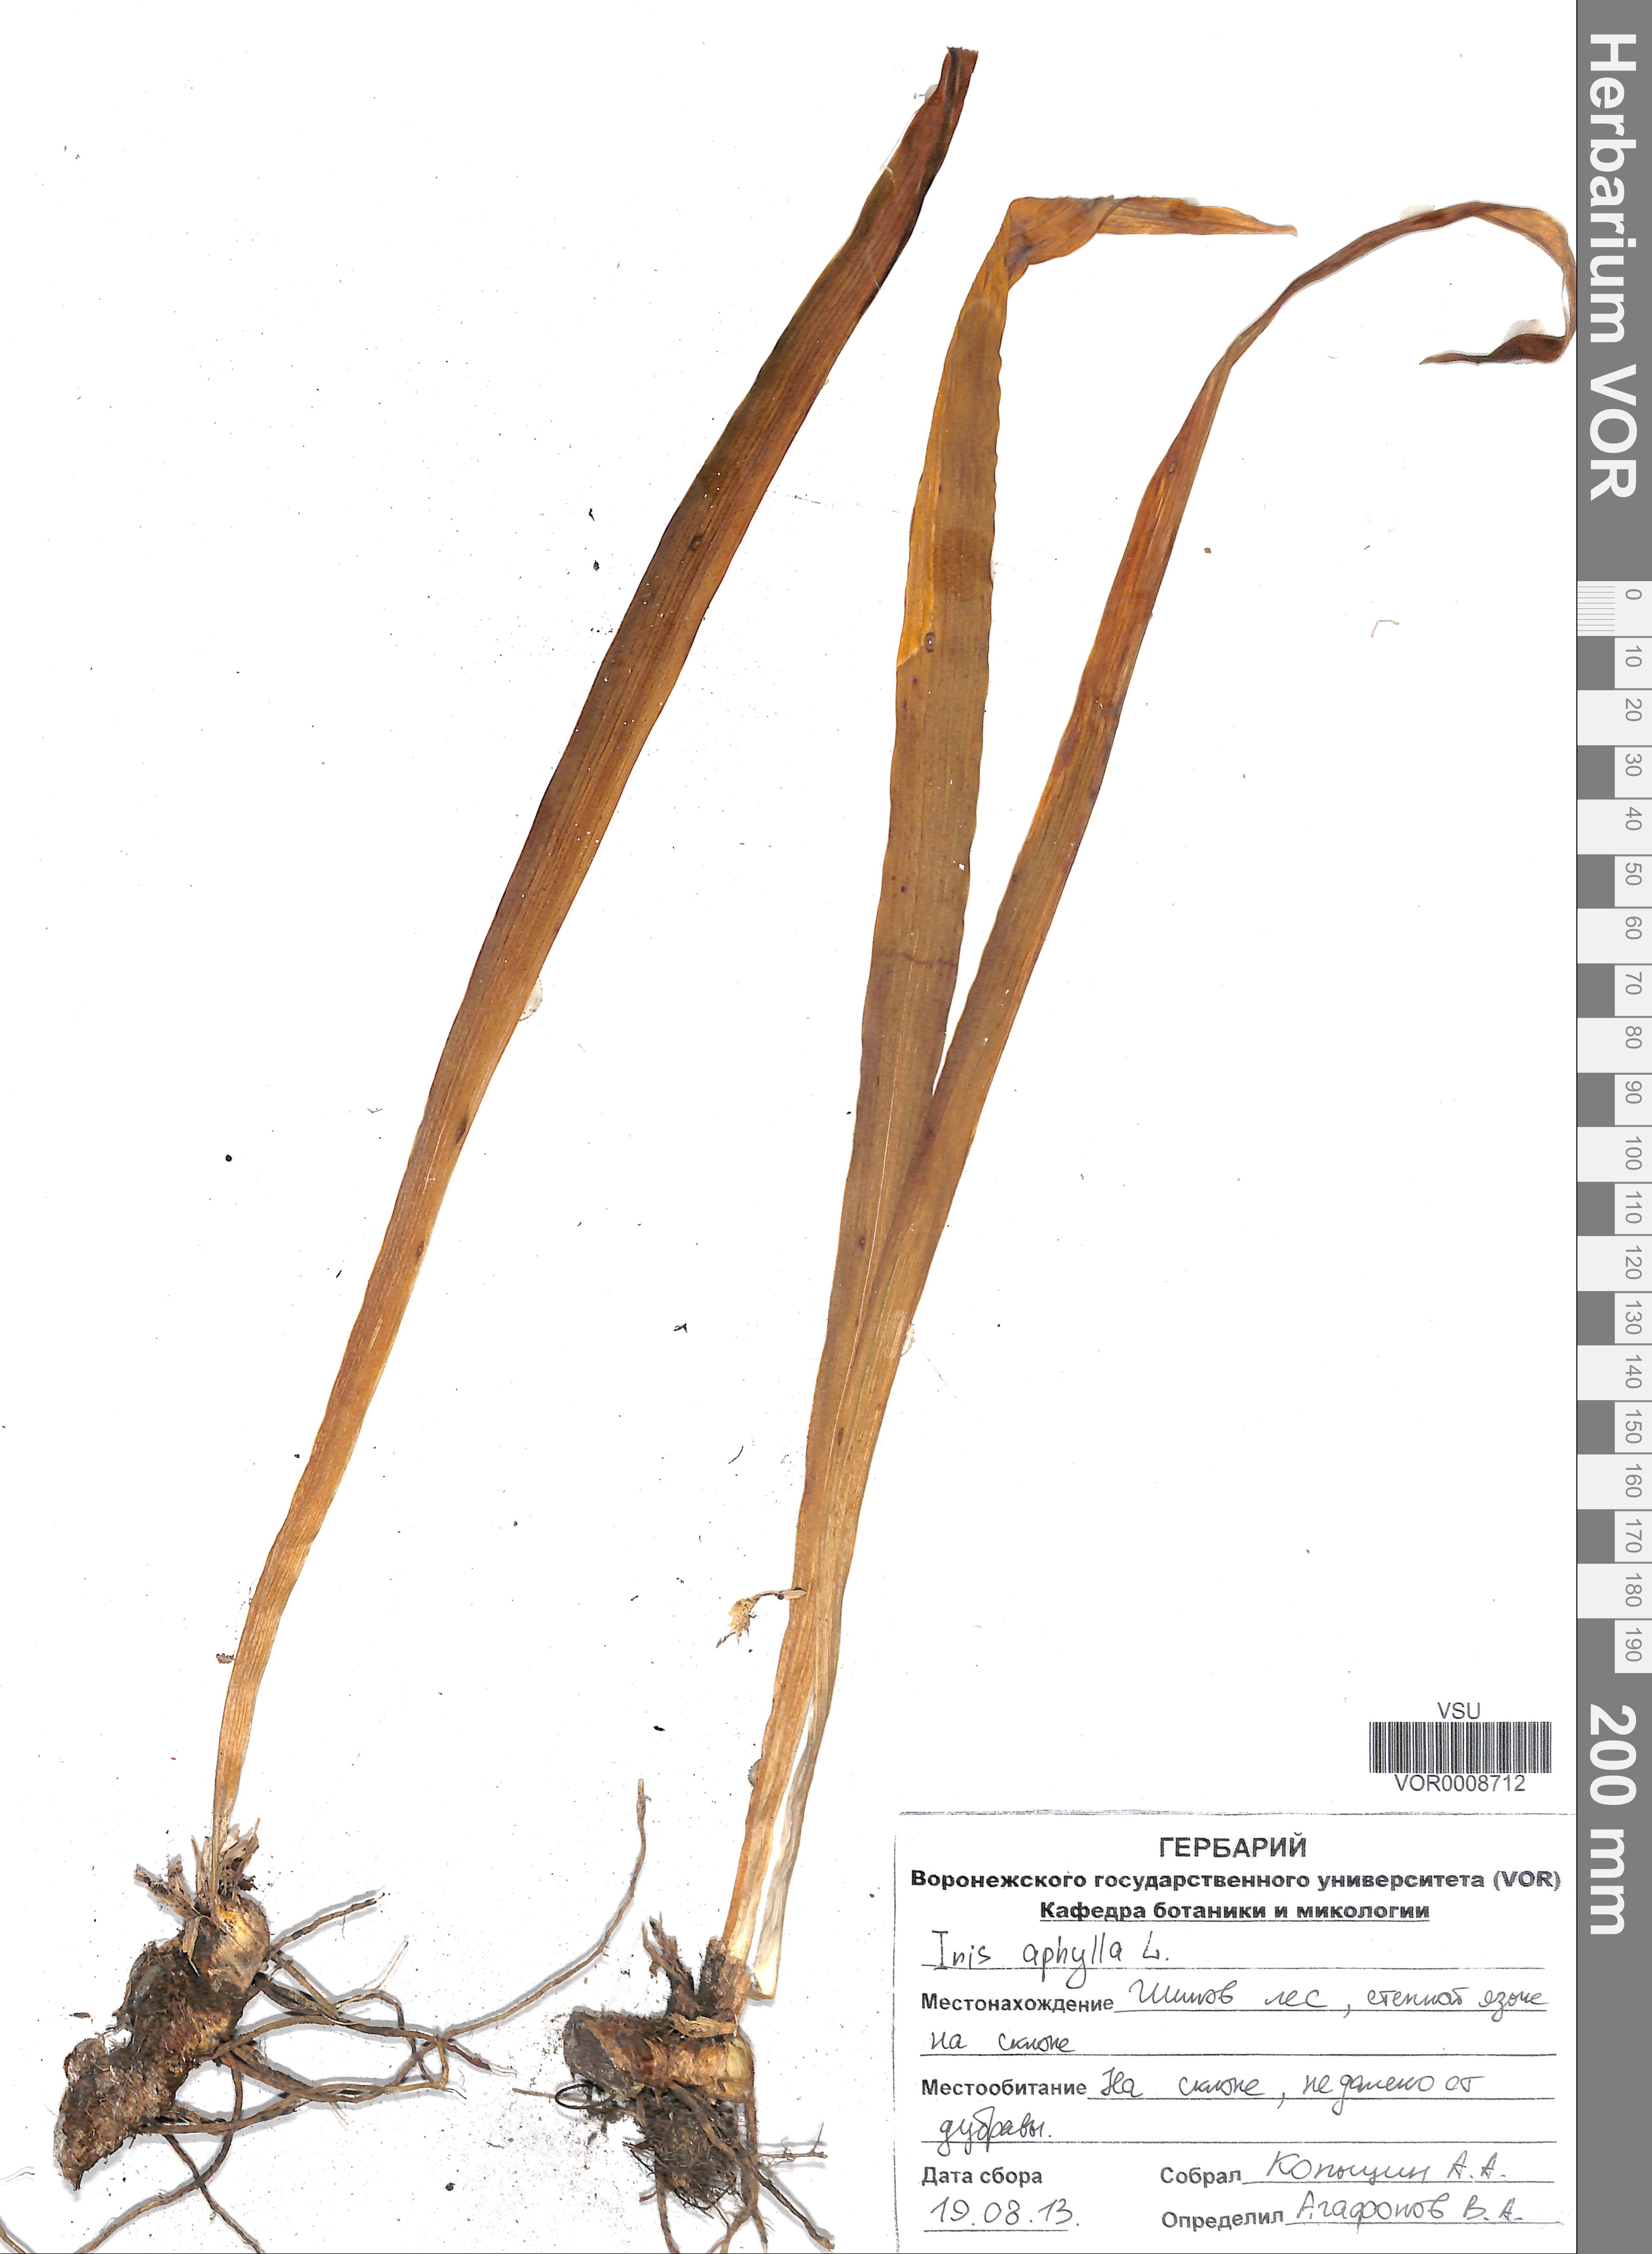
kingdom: Plantae
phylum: Tracheophyta
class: Liliopsida
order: Asparagales
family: Iridaceae
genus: Iris
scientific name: Iris aphylla
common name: Stool iris
